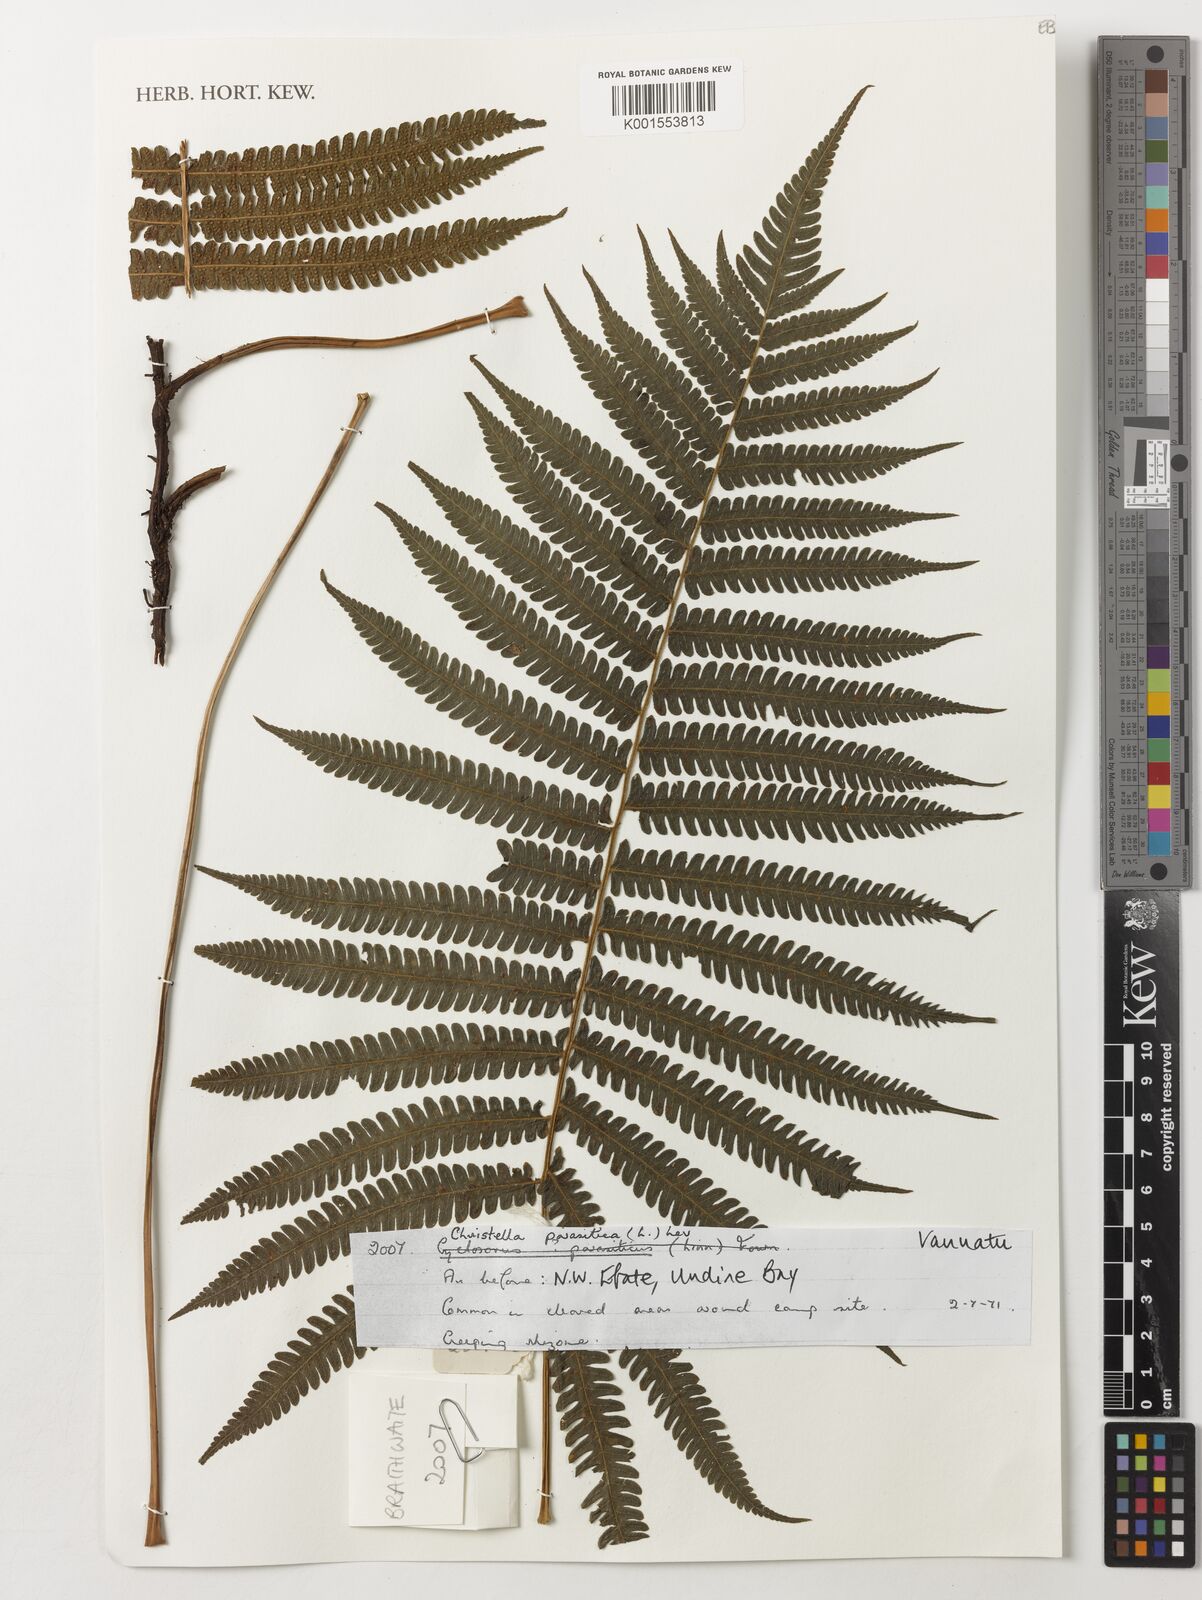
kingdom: Plantae
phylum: Tracheophyta
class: Polypodiopsida
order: Polypodiales
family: Thelypteridaceae
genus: Christella
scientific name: Christella parasitica
